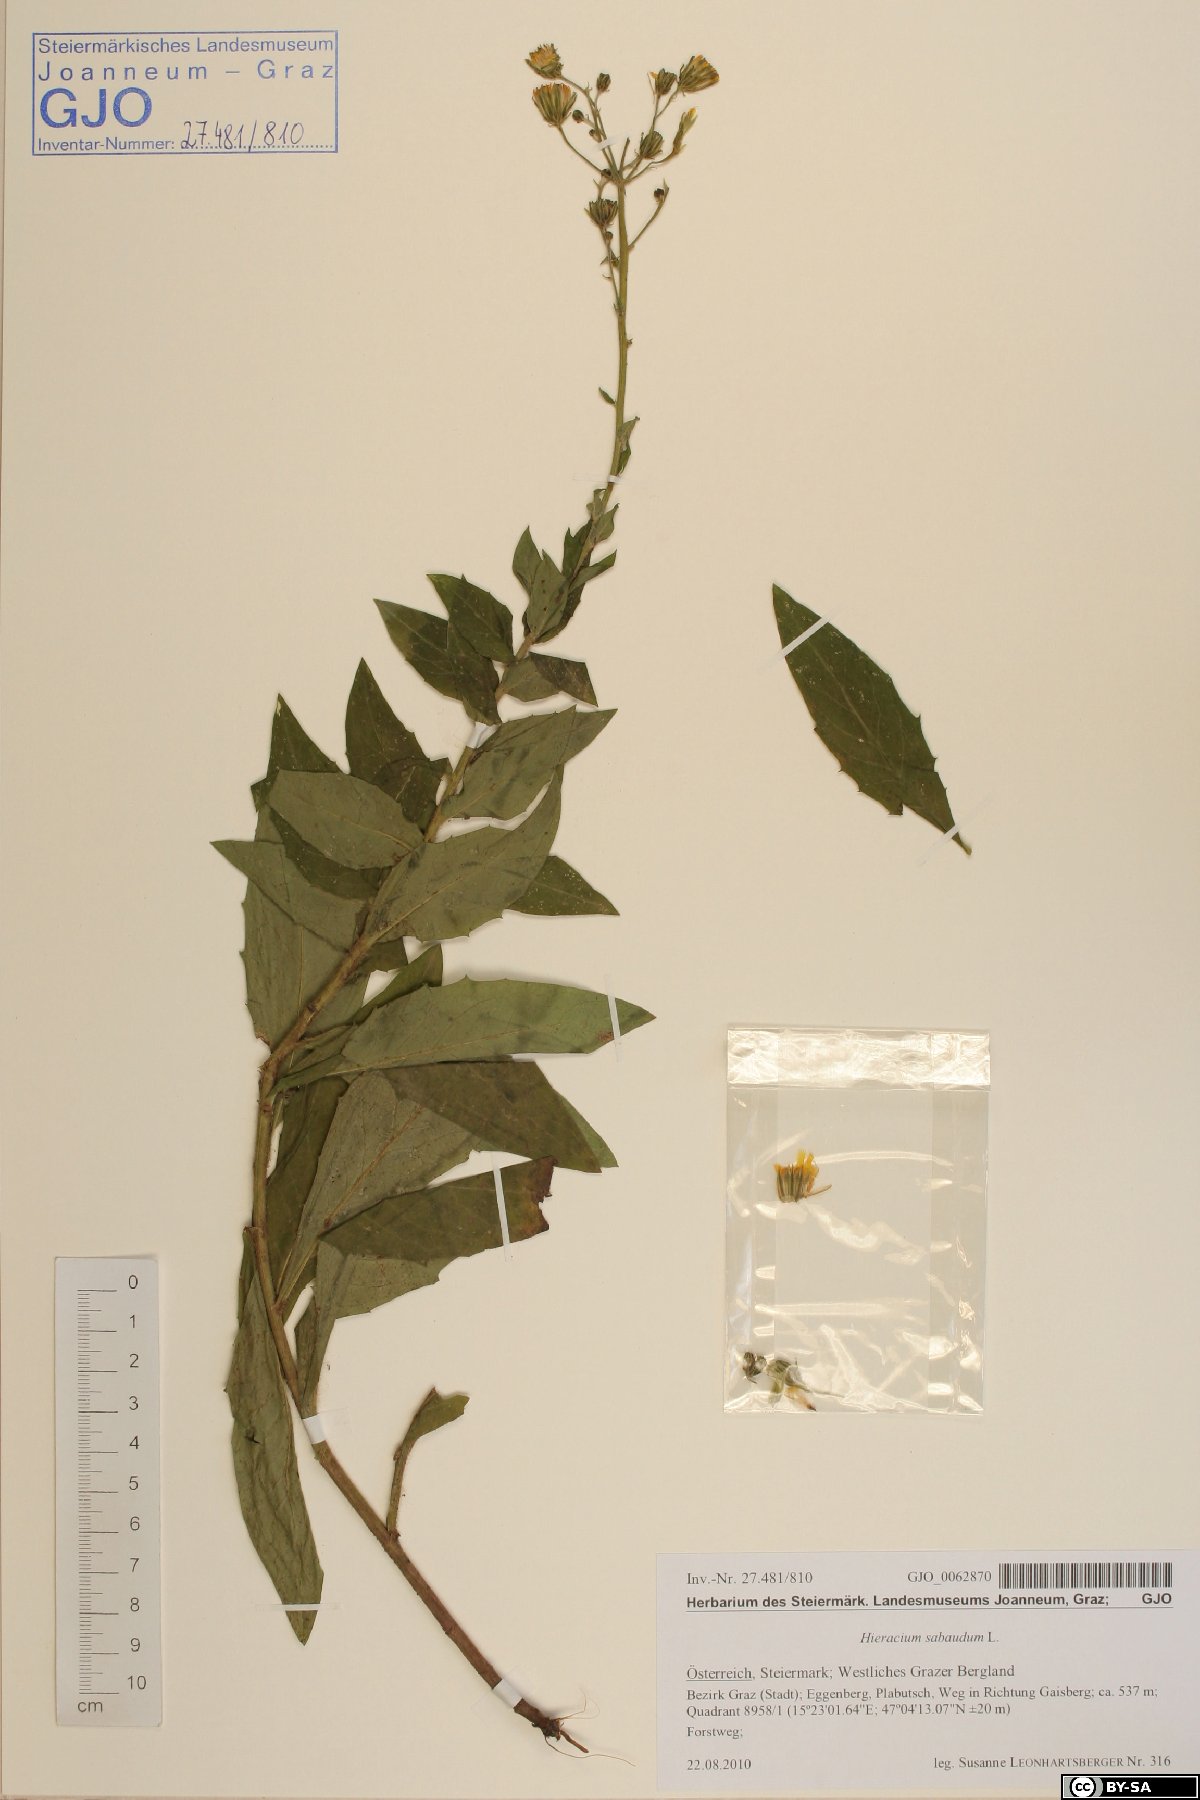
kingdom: Plantae
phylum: Tracheophyta
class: Magnoliopsida
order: Asterales
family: Asteraceae
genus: Hieracium
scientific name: Hieracium sabaudum
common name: New england hawkweed
